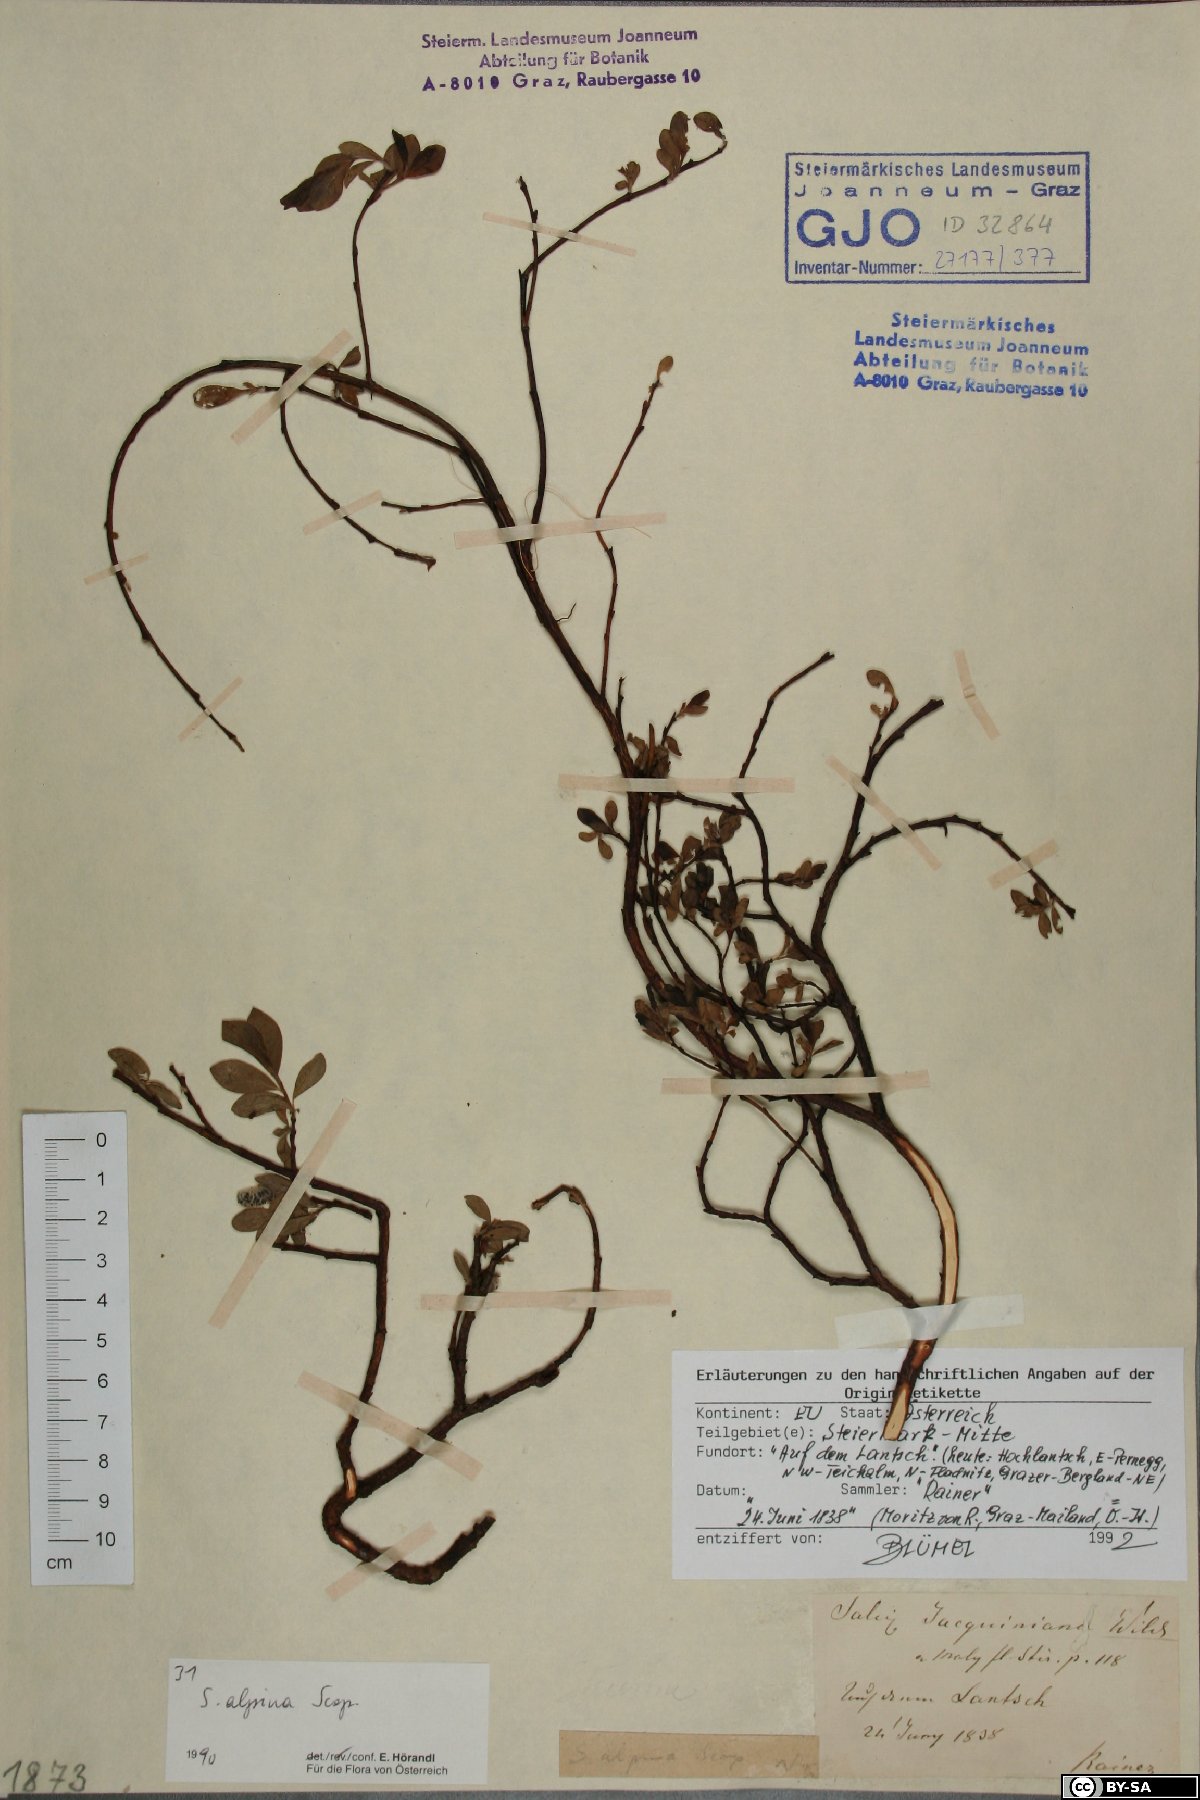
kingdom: Plantae
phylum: Tracheophyta
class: Magnoliopsida
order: Malpighiales
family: Salicaceae
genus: Salix
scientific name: Salix alpina
